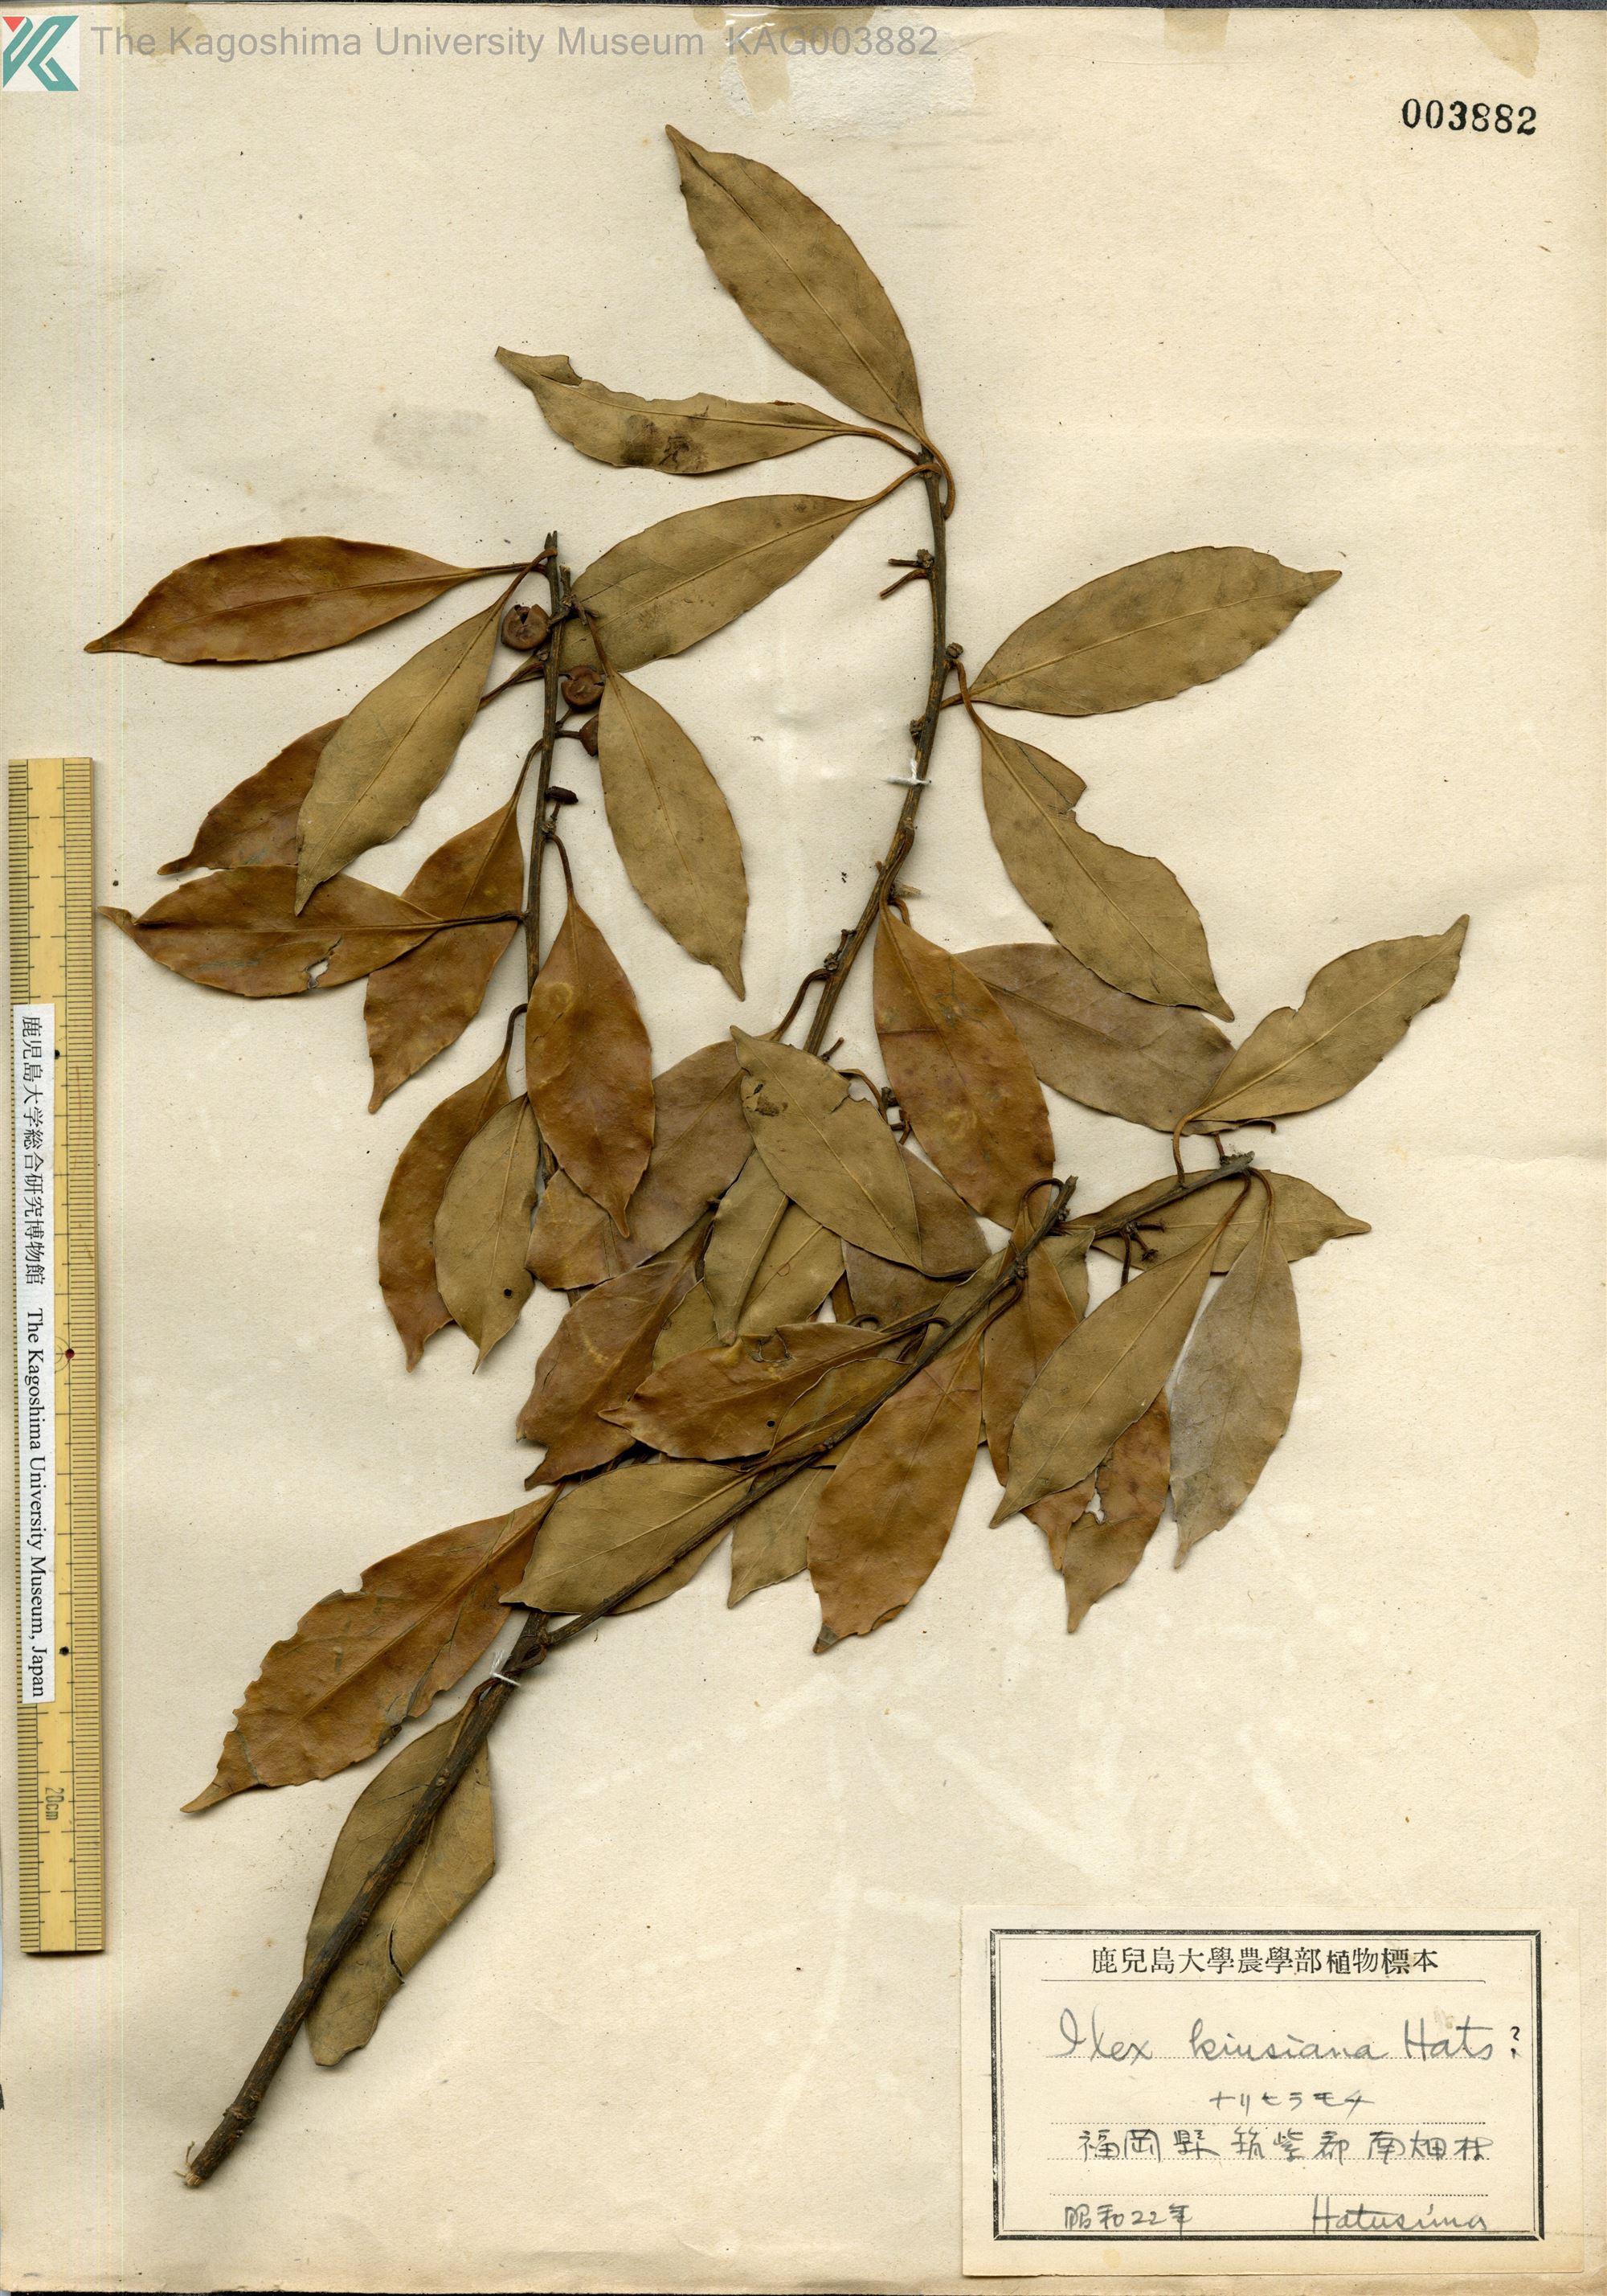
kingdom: Plantae
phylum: Tracheophyta
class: Magnoliopsida
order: Aquifoliales
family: Aquifoliaceae
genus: Ilex
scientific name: Ilex kiusiana
